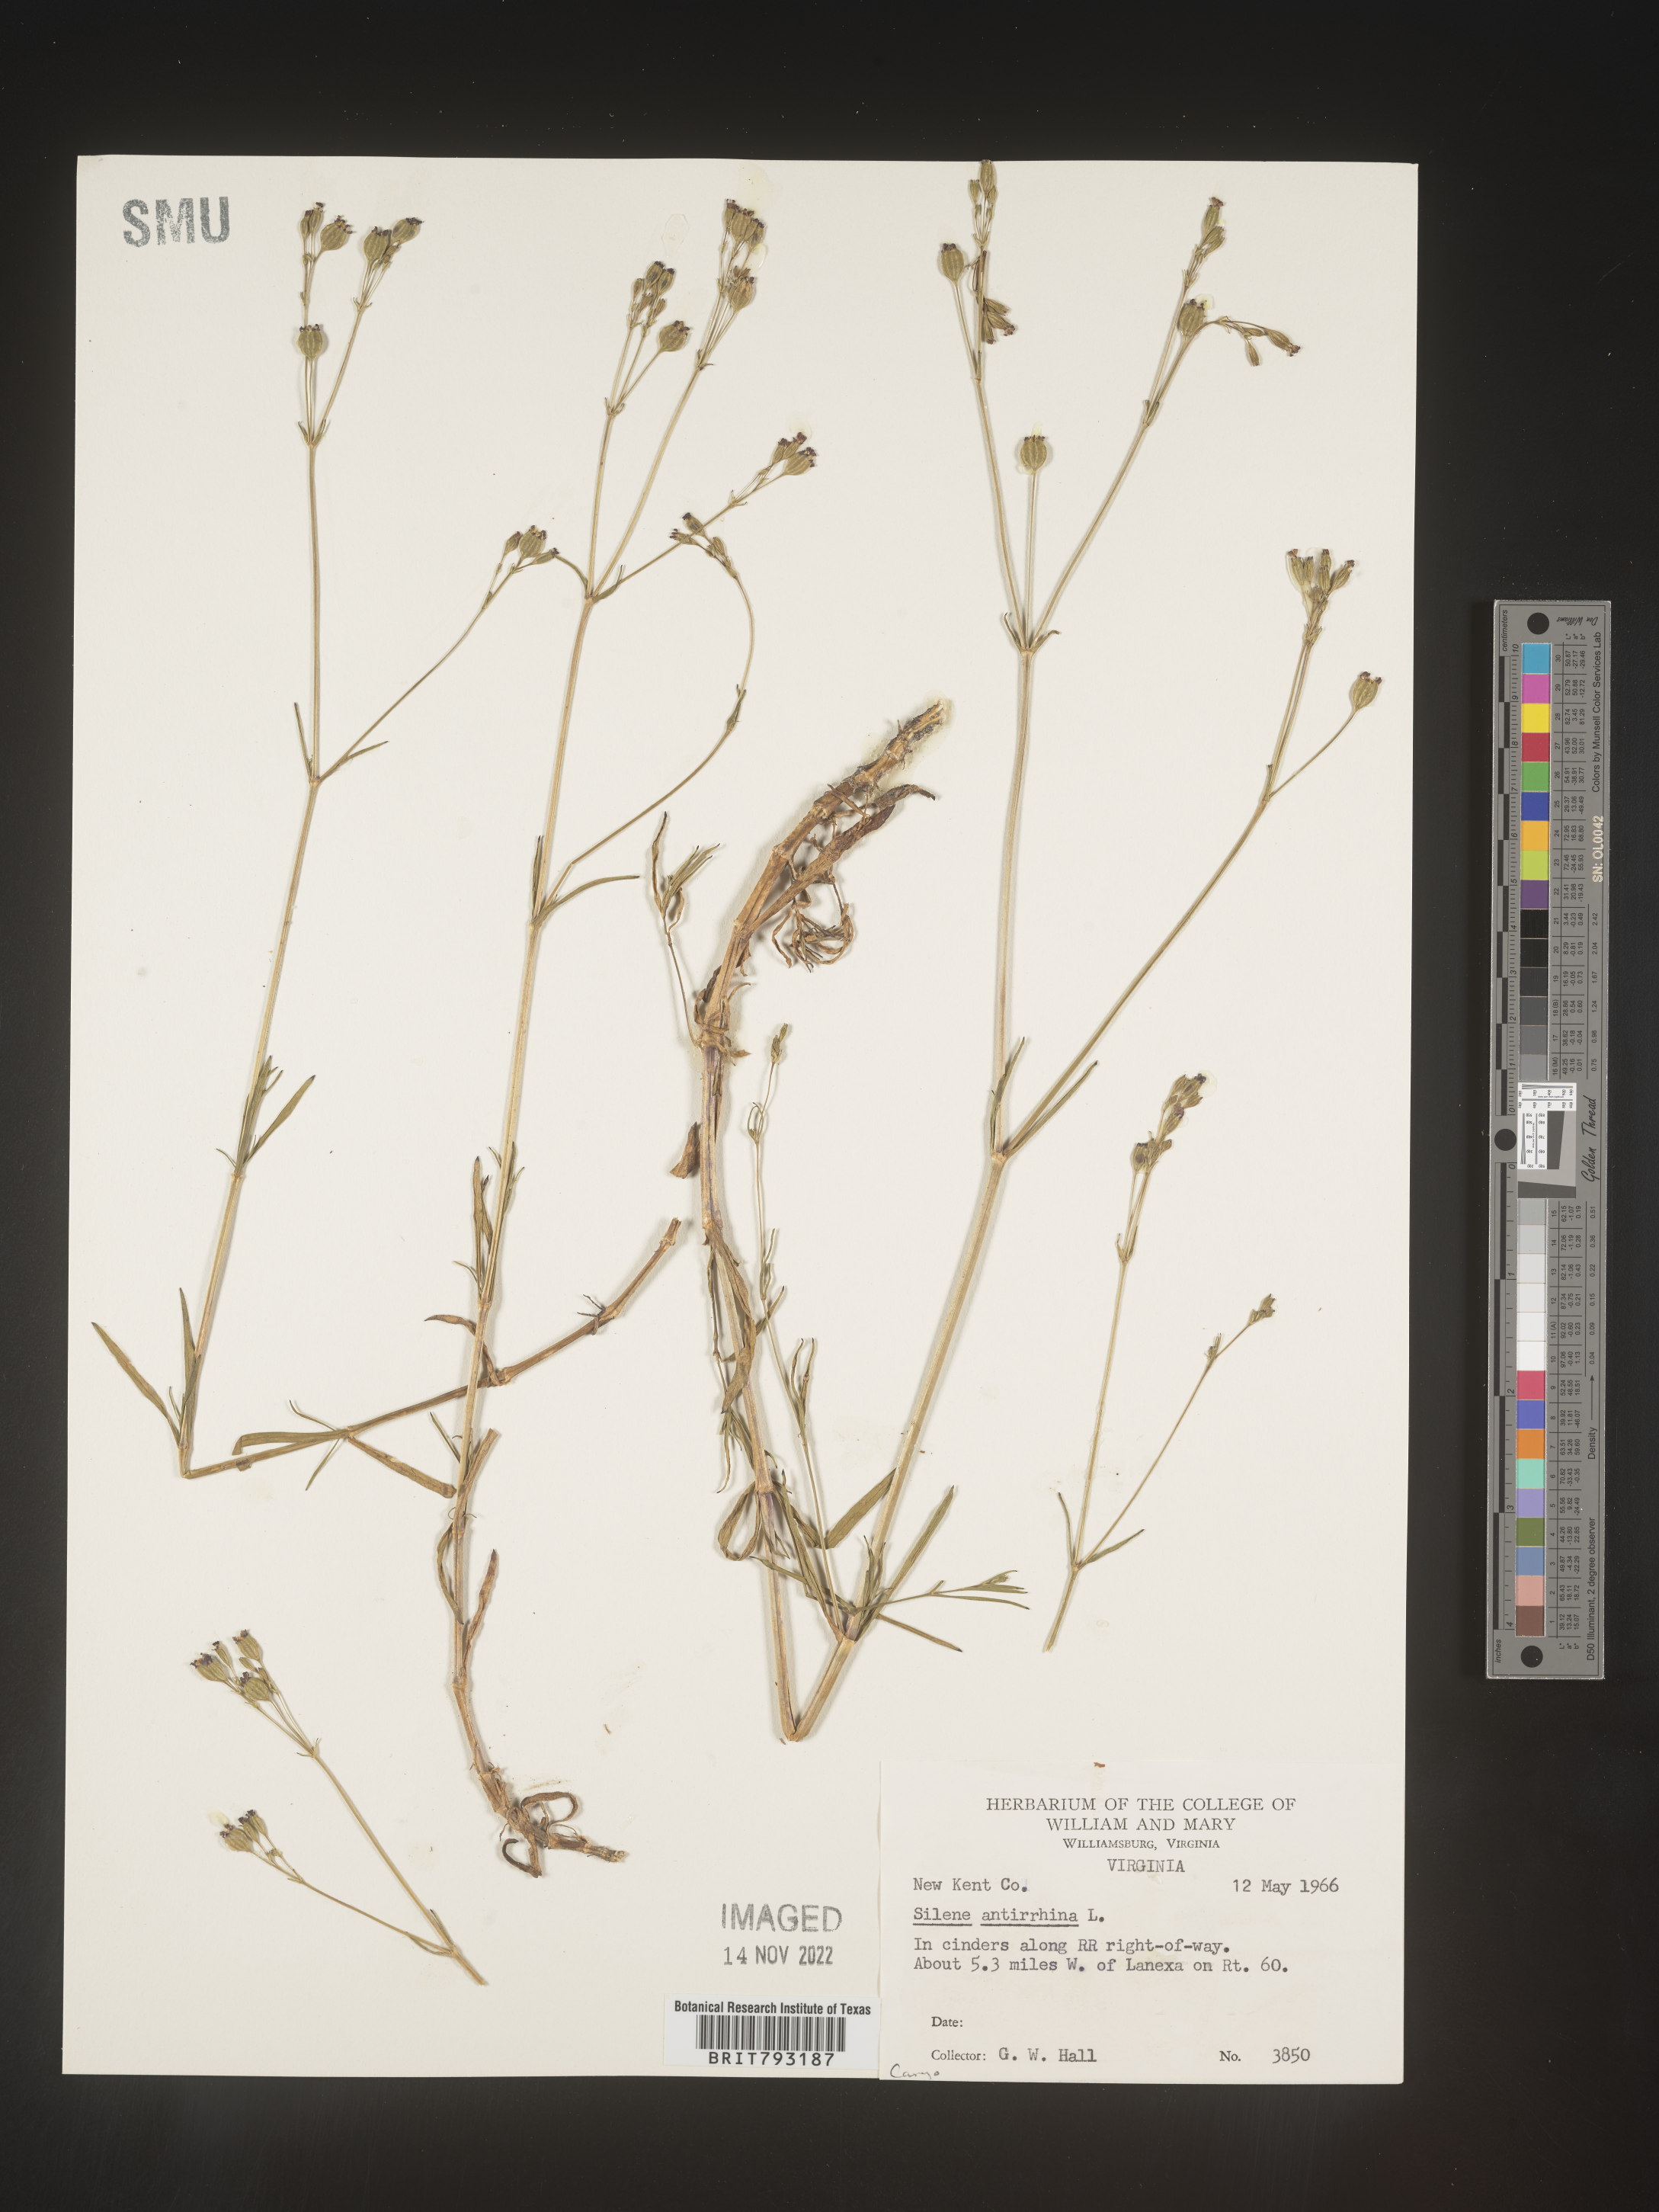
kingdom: Plantae
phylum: Tracheophyta
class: Magnoliopsida
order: Caryophyllales
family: Caryophyllaceae
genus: Silene
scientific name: Silene antirrhina
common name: Sleepy catchfly
